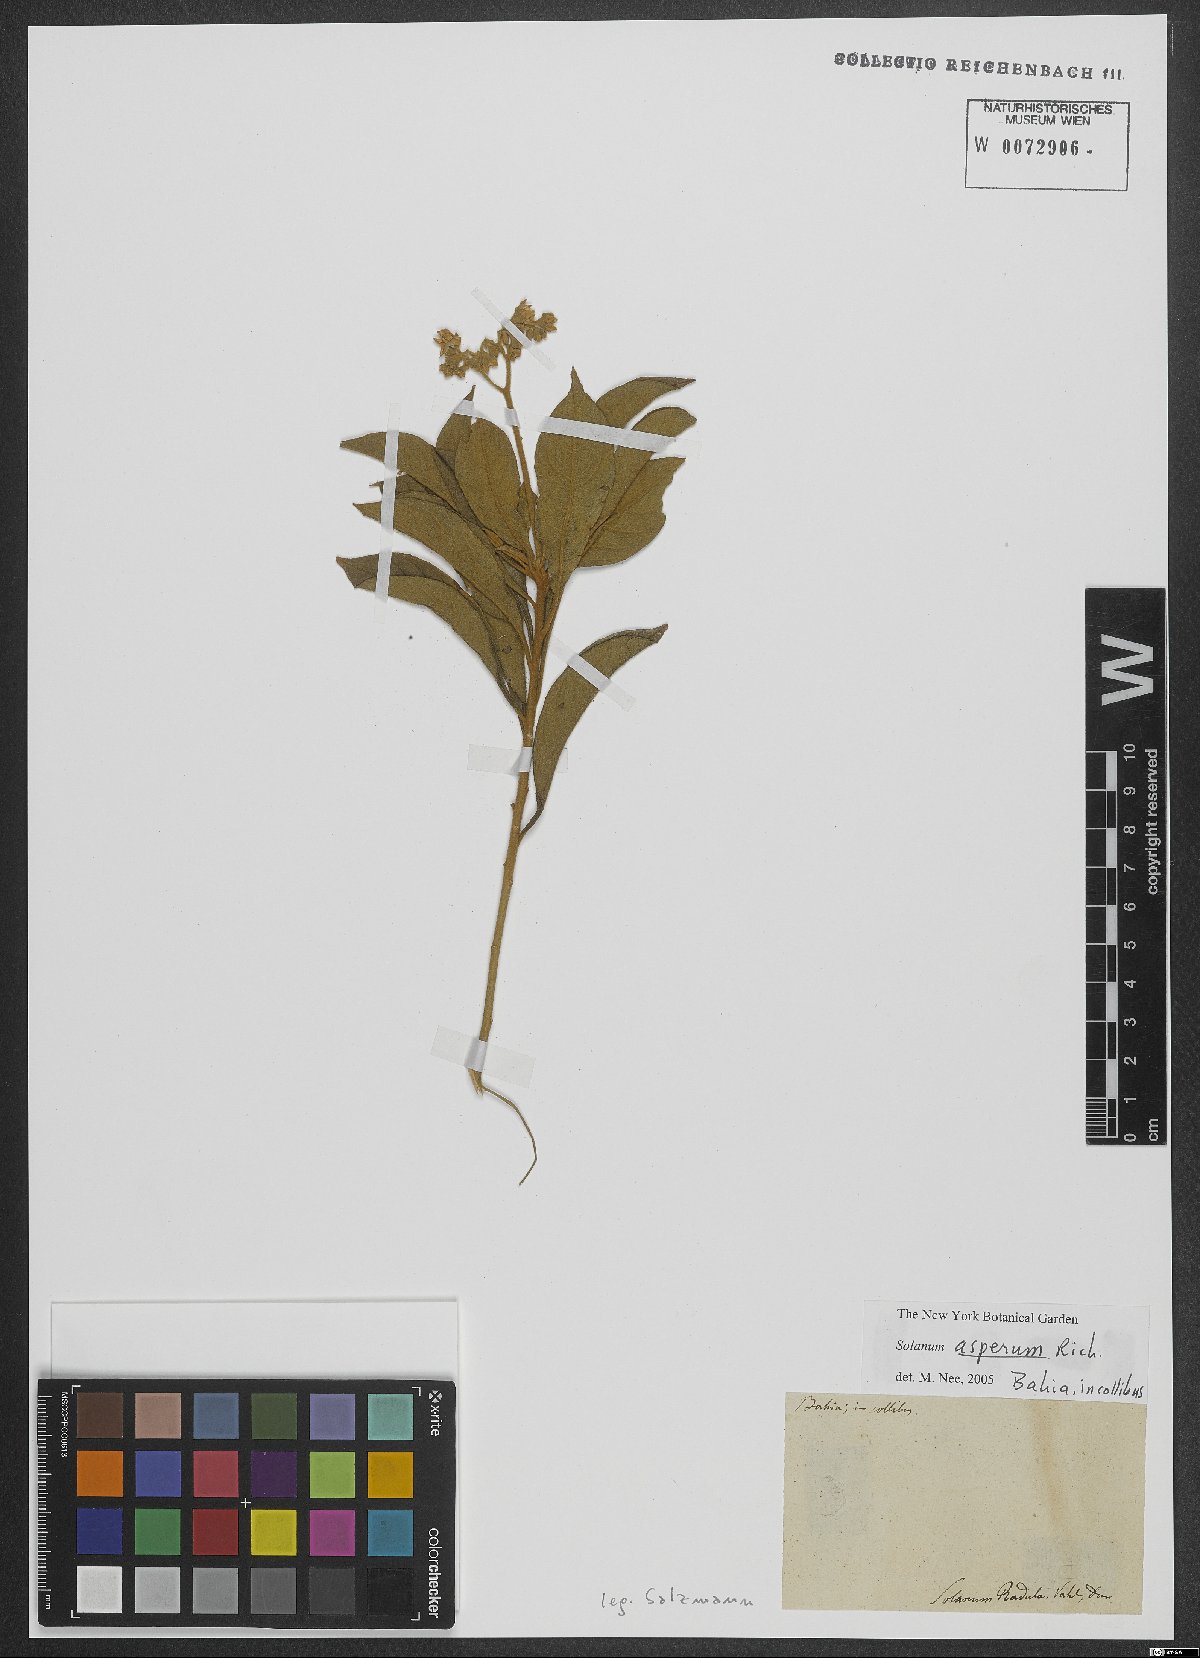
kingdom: Plantae
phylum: Tracheophyta
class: Magnoliopsida
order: Solanales
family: Solanaceae
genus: Solanum
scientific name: Solanum asperum
